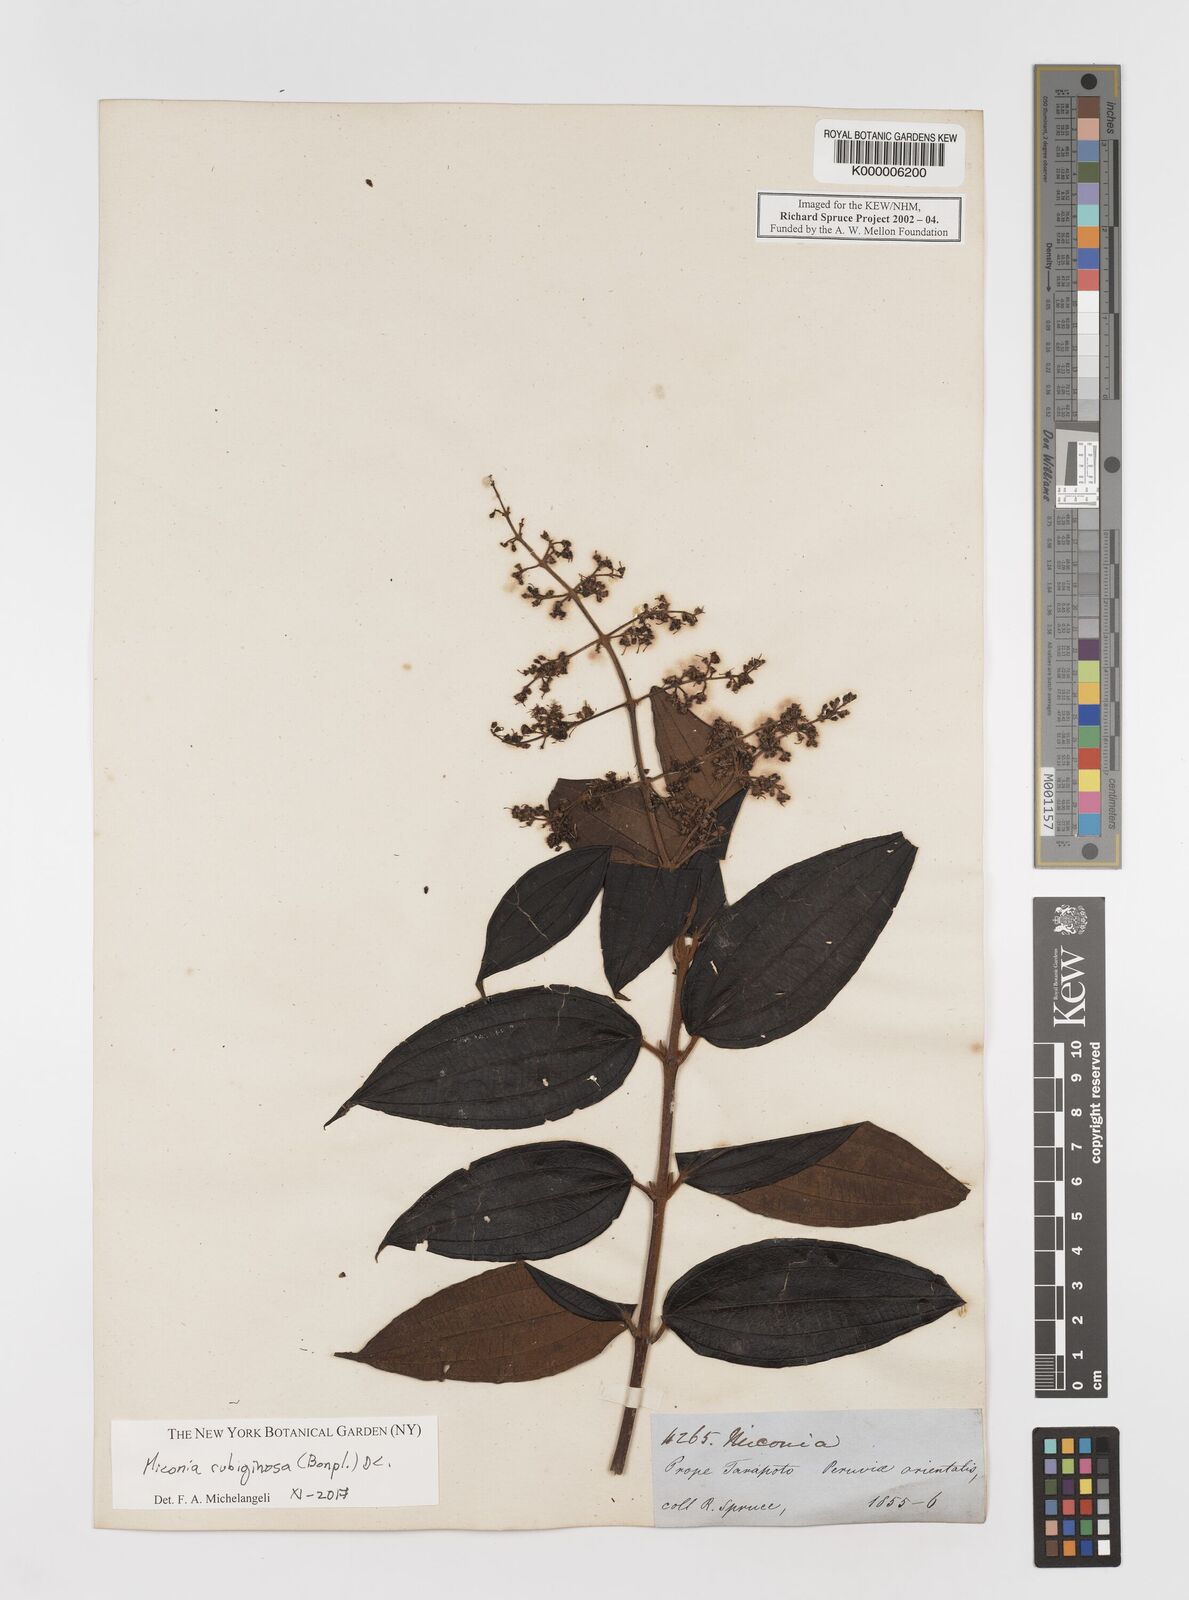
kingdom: Plantae
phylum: Tracheophyta
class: Magnoliopsida
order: Myrtales
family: Melastomataceae
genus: Miconia
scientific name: Miconia
